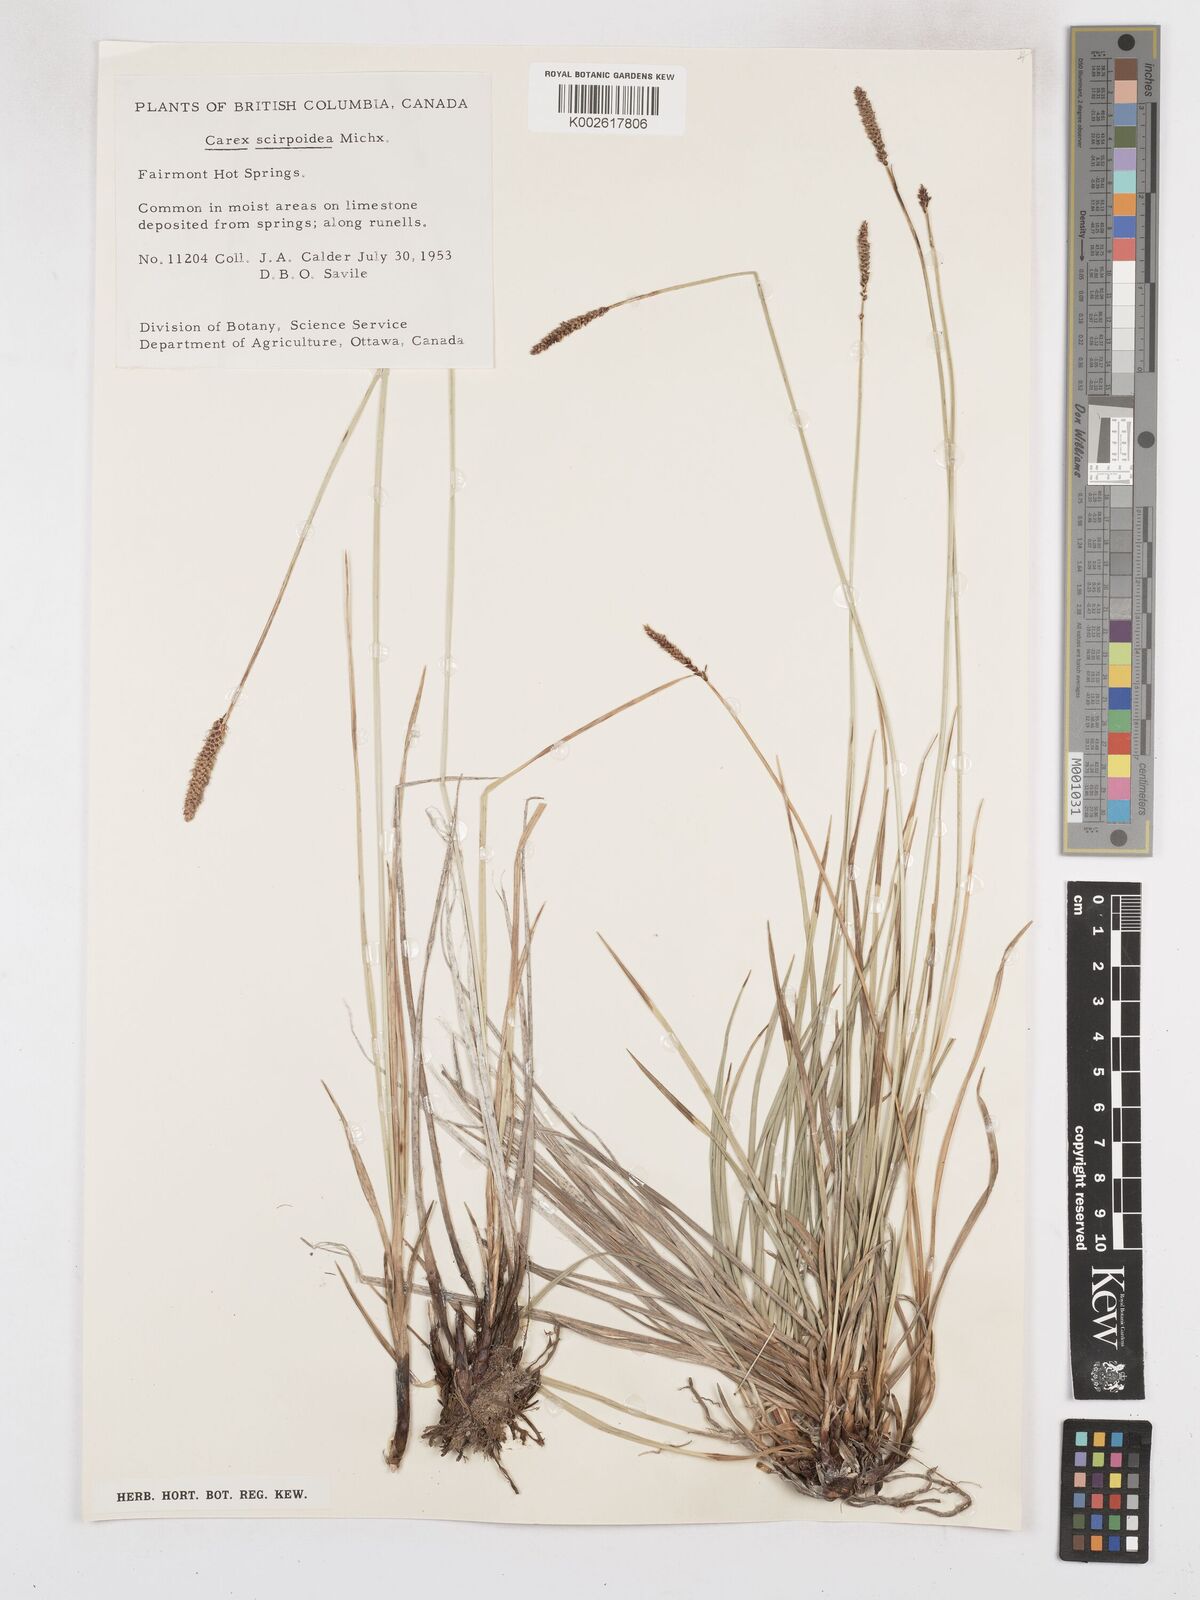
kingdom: Plantae
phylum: Tracheophyta
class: Liliopsida
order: Poales
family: Cyperaceae
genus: Carex
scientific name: Carex scirpoidea
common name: Canada single-spike sedge
